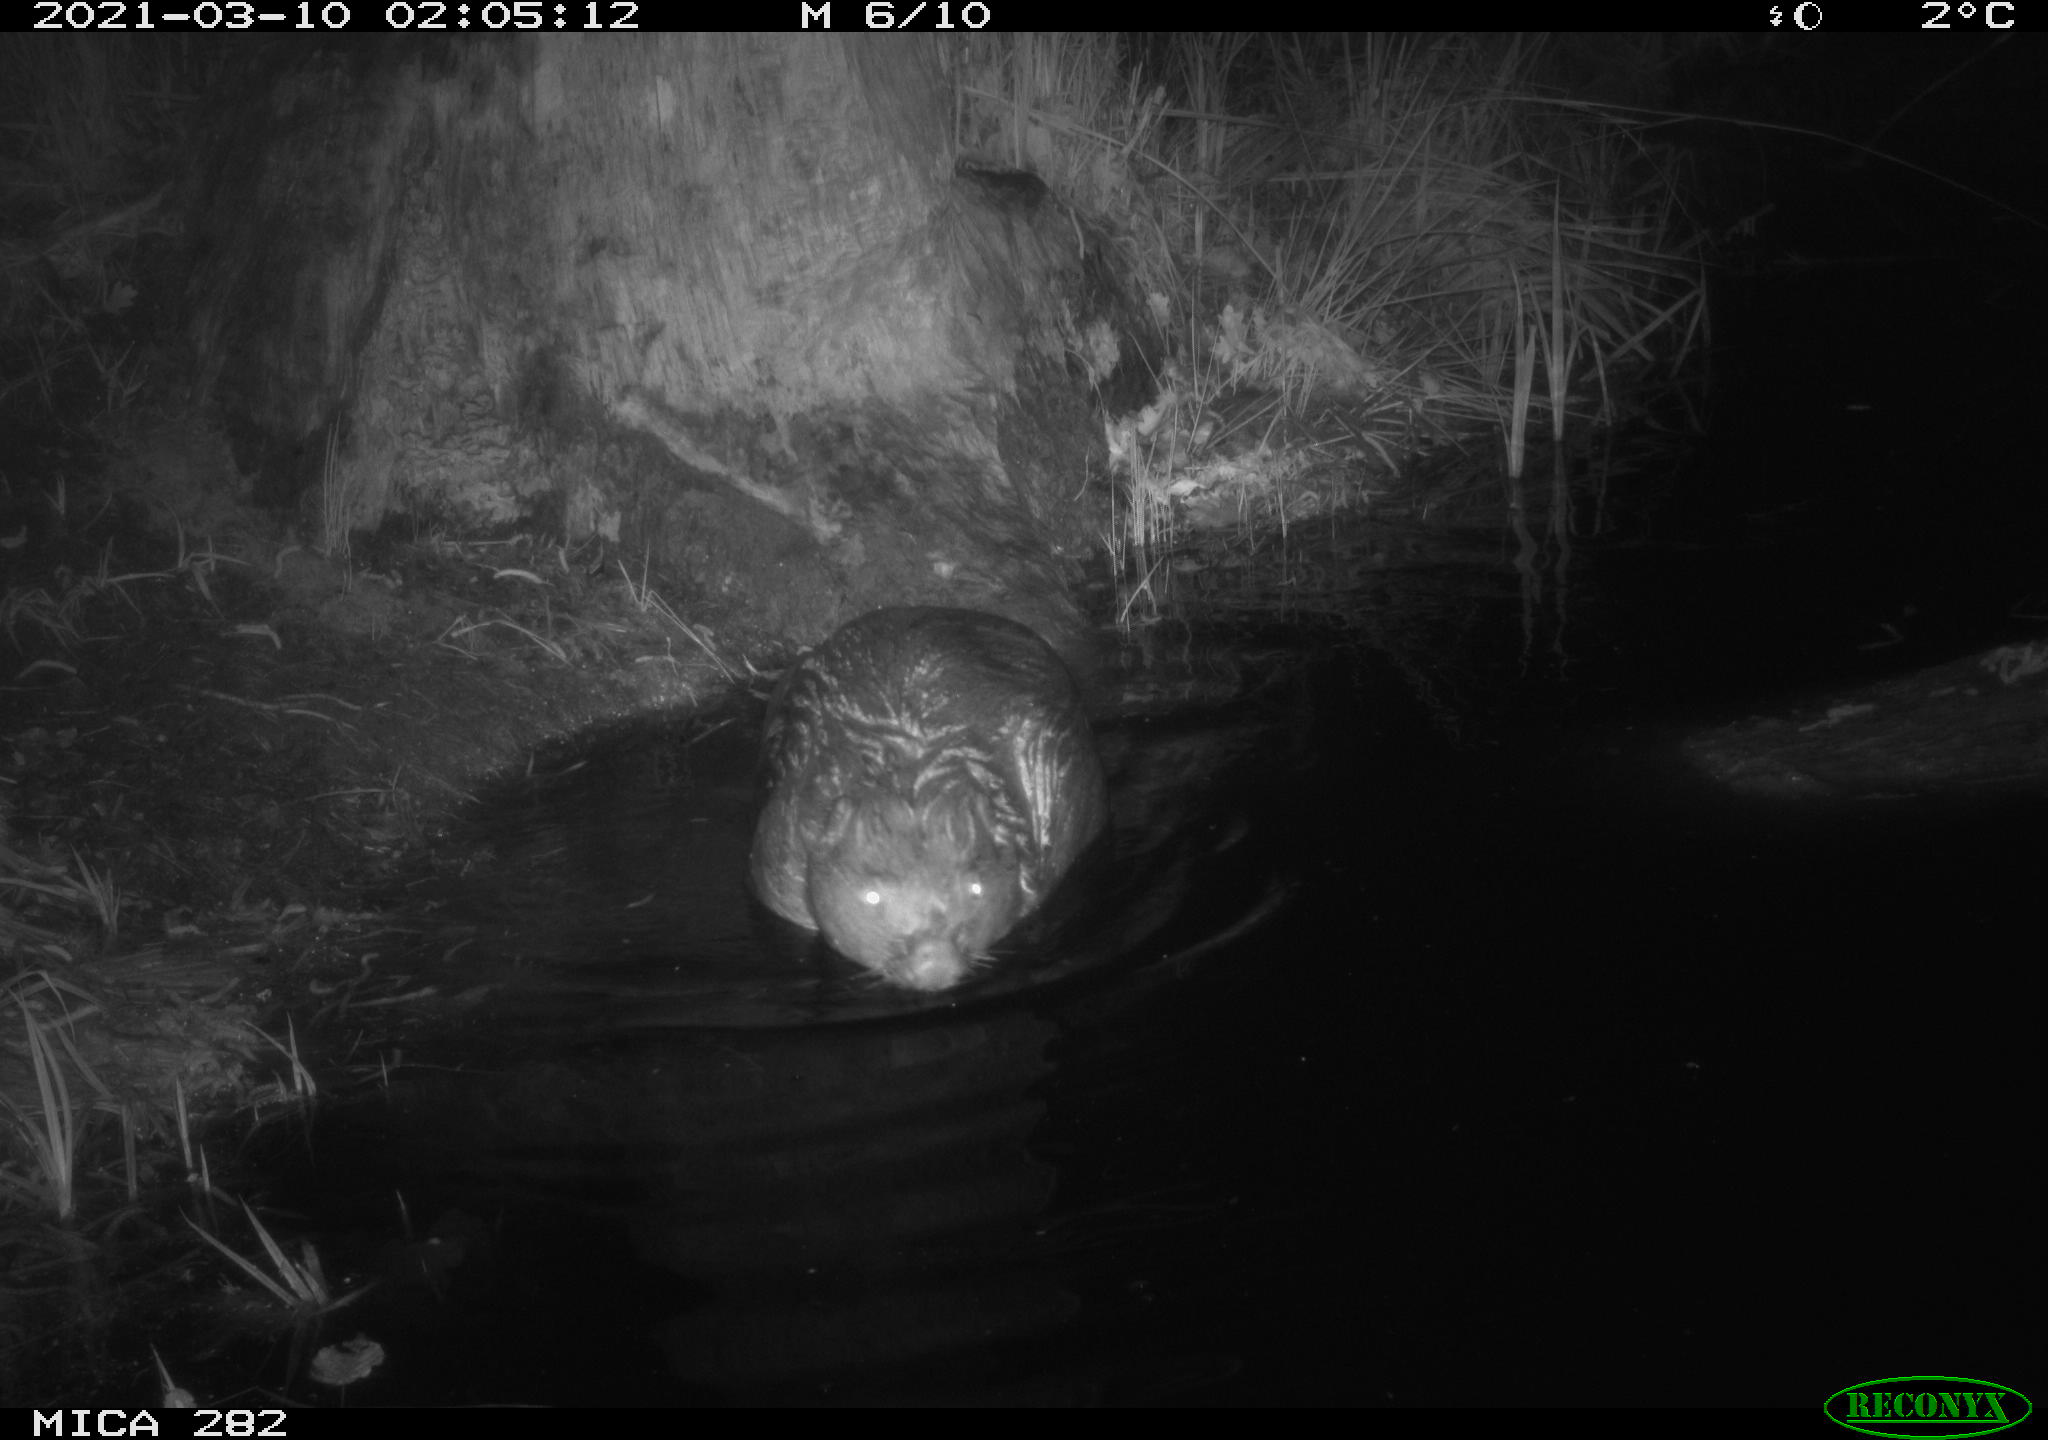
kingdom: Animalia
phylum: Chordata
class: Mammalia
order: Rodentia
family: Castoridae
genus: Castor
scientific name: Castor fiber
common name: Eurasian beaver
